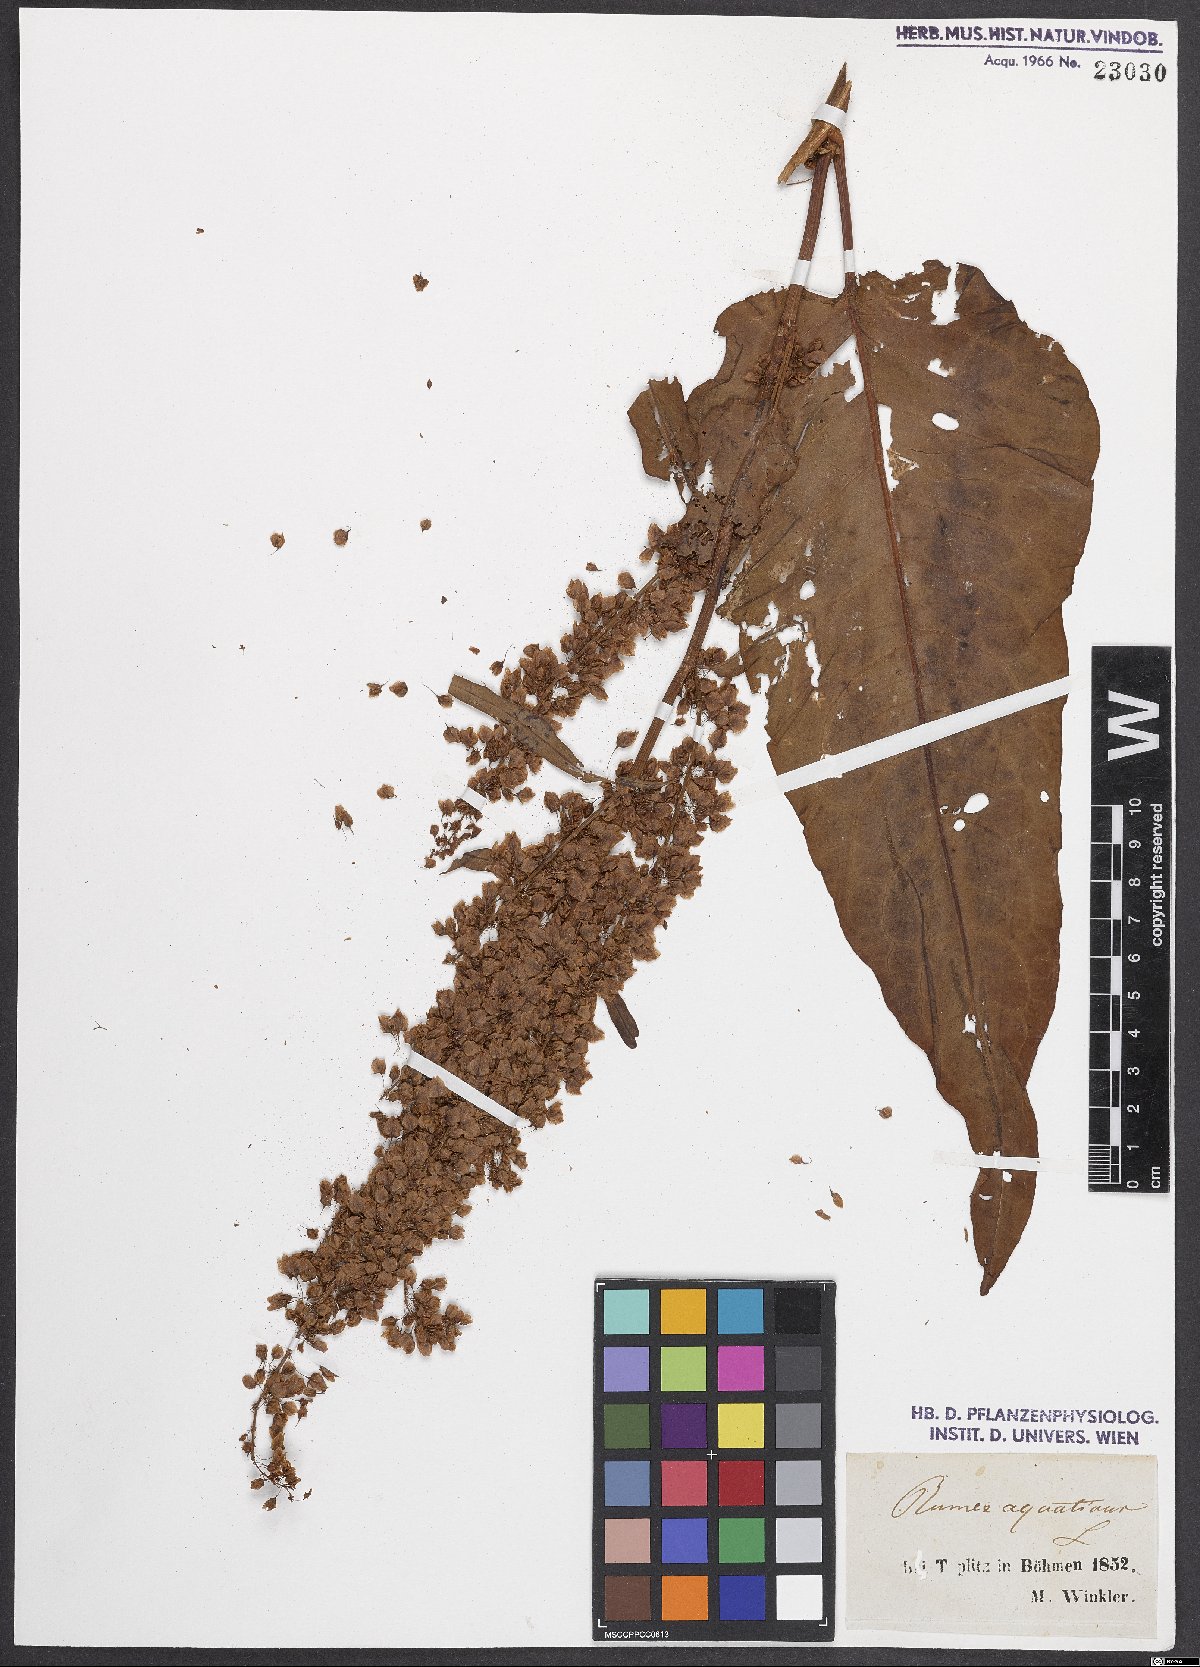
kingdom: Plantae
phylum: Tracheophyta
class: Magnoliopsida
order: Caryophyllales
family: Polygonaceae
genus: Rumex
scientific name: Rumex aquaticus
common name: Scottish dock
